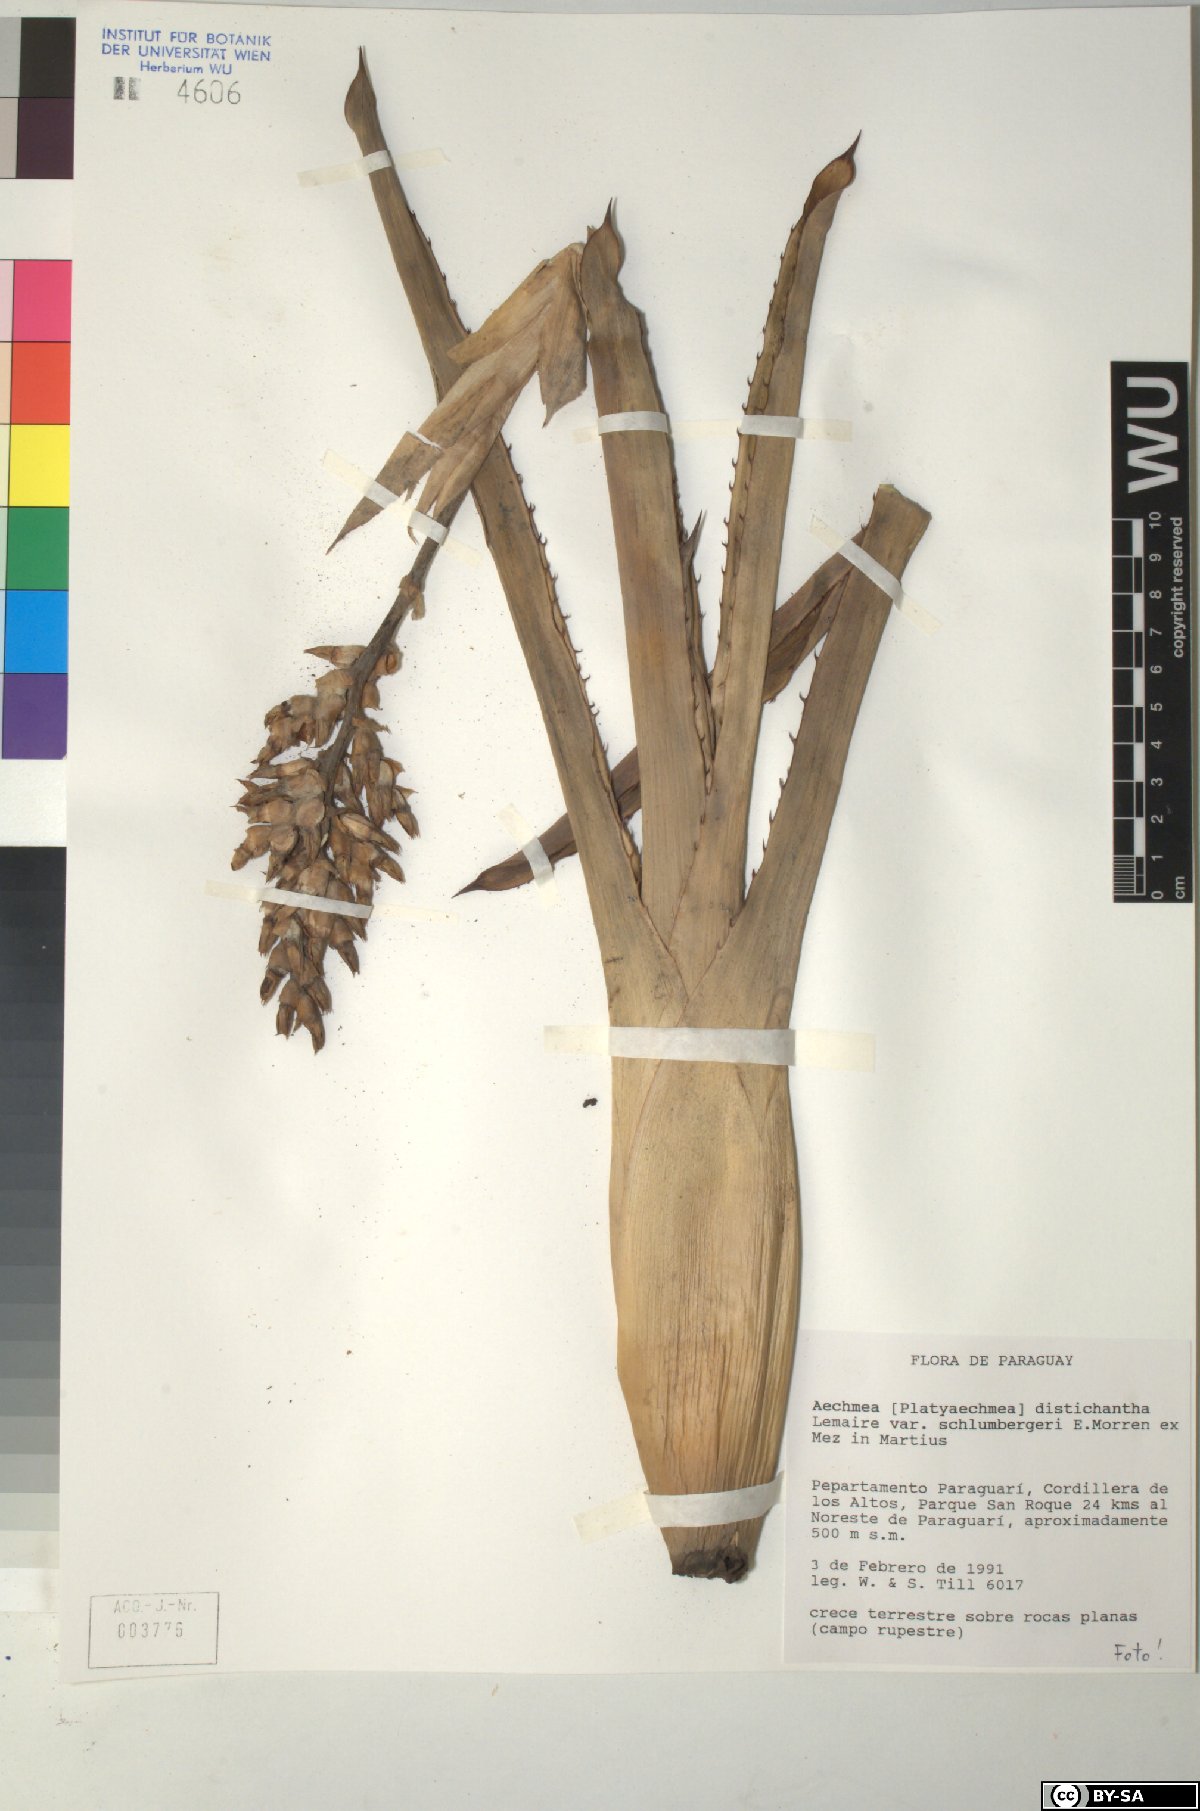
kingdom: Plantae
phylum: Tracheophyta
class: Liliopsida
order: Poales
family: Bromeliaceae
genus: Aechmea
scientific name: Aechmea distichantha
